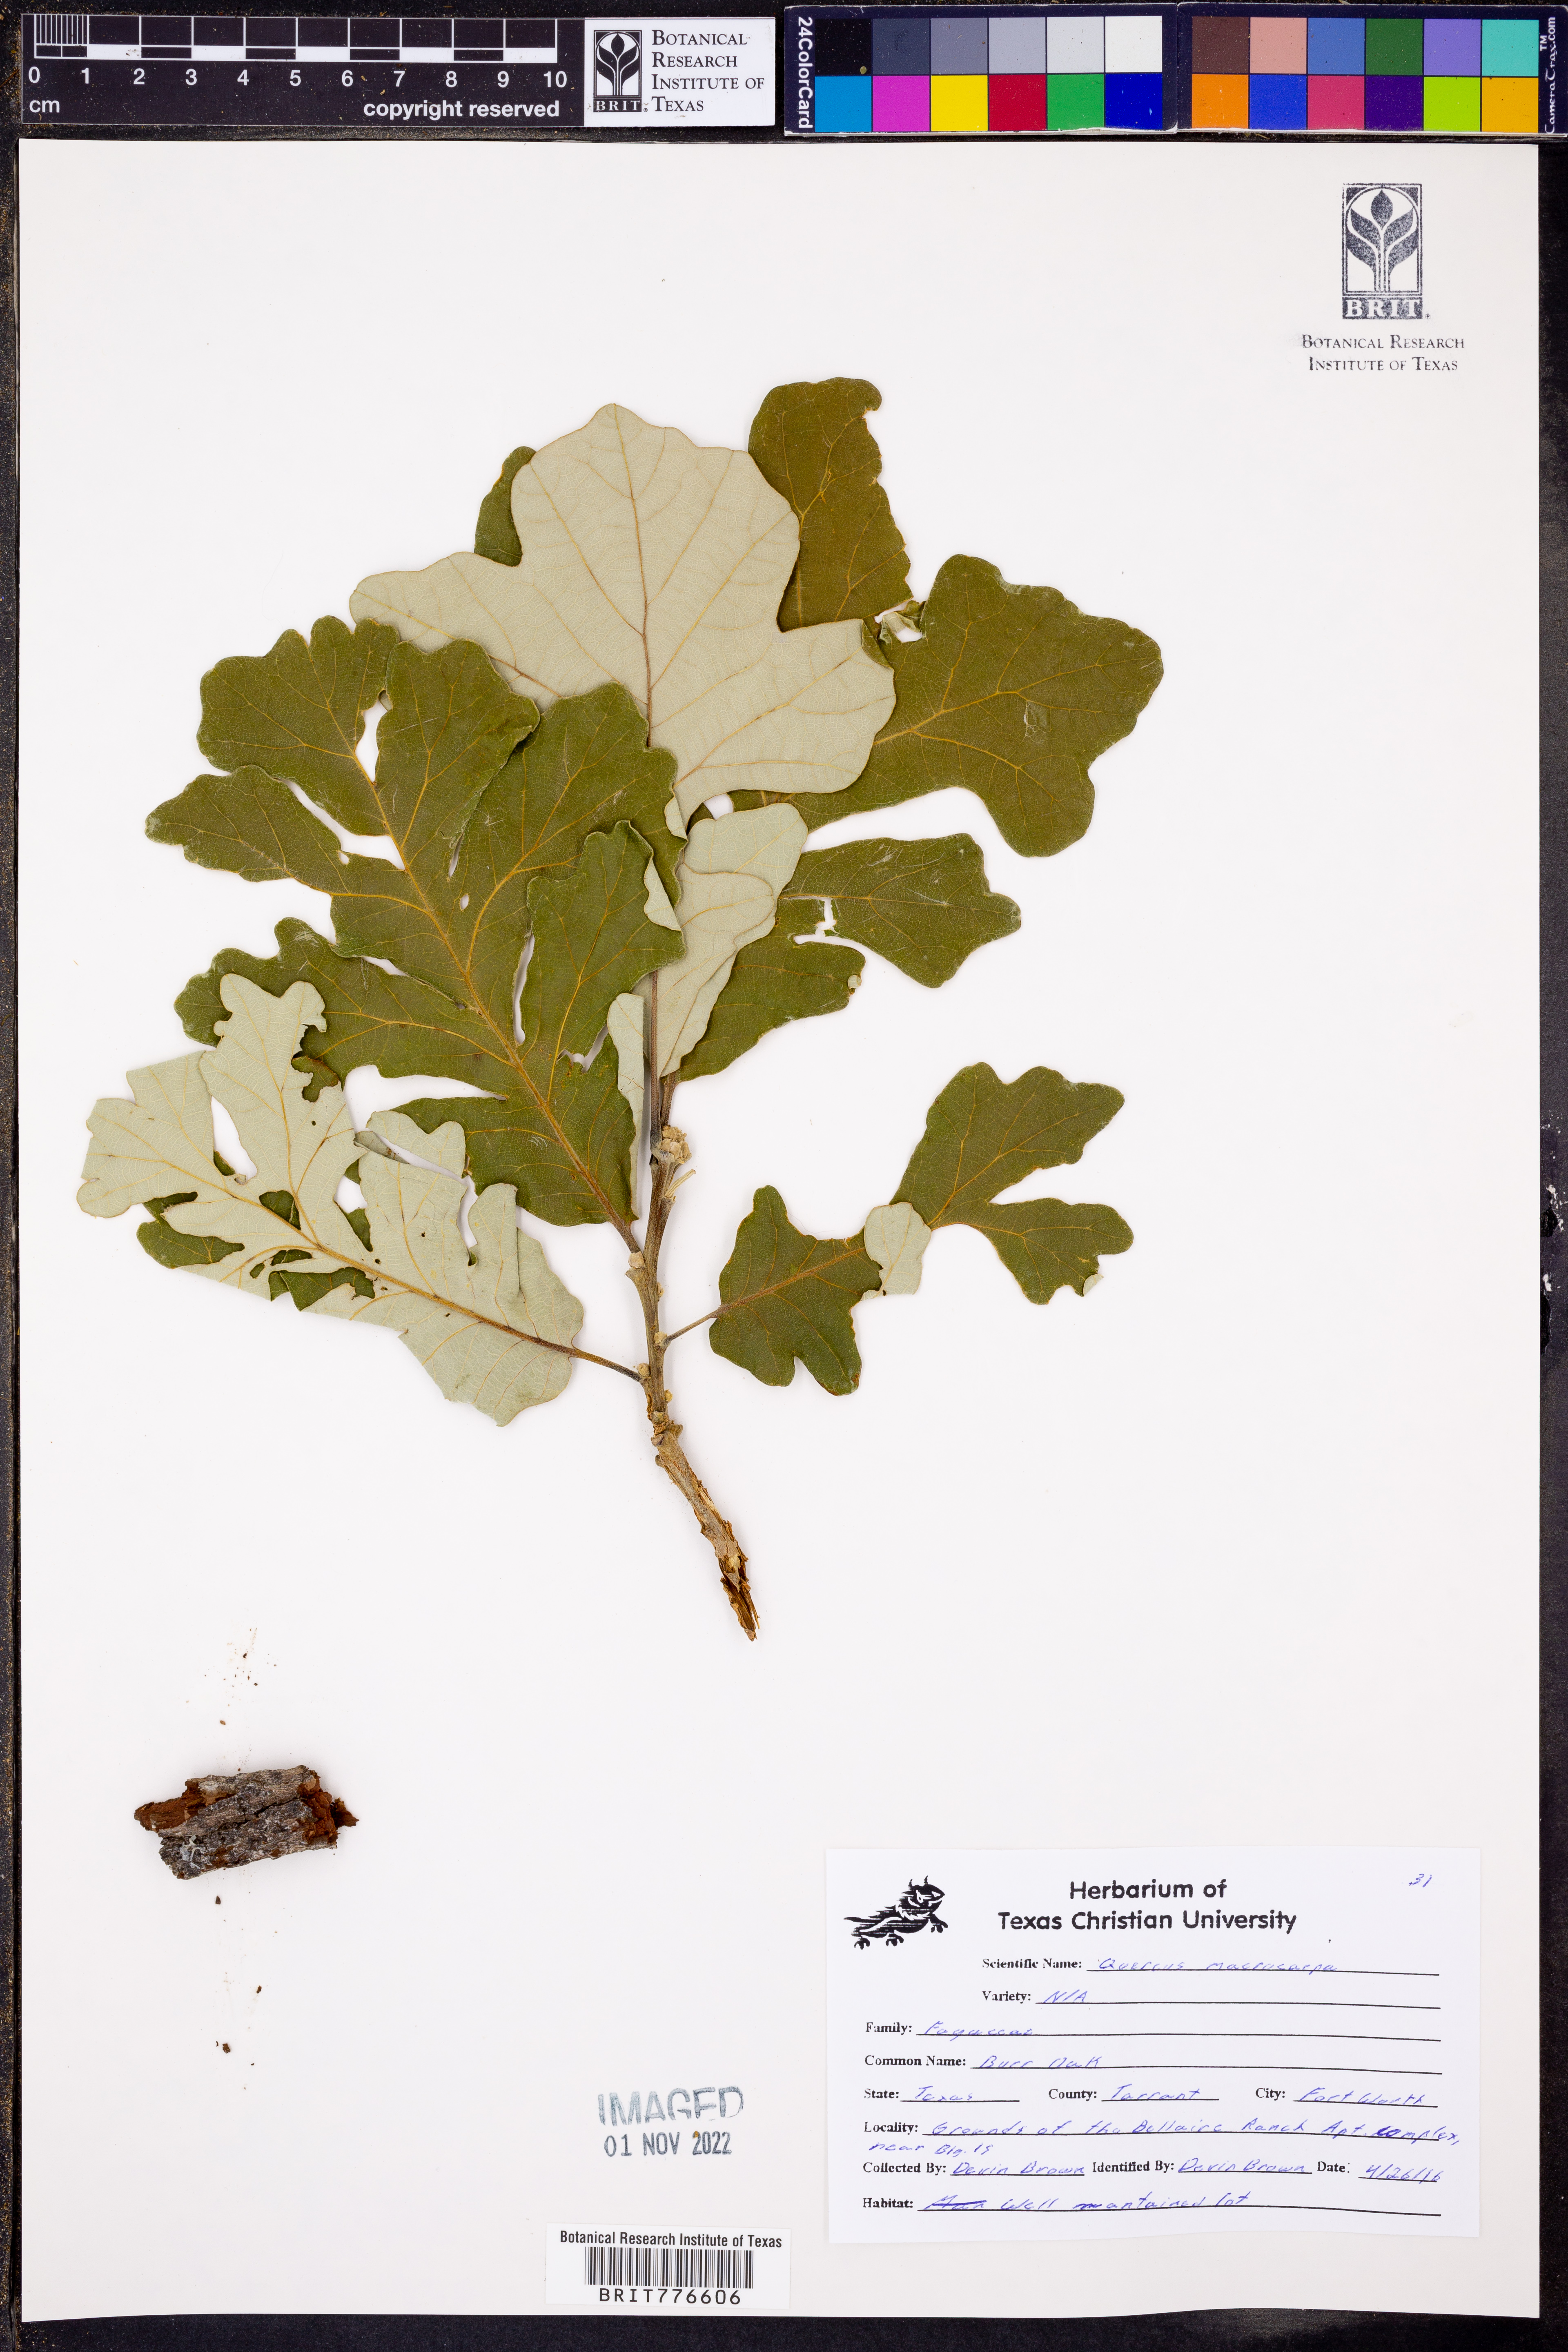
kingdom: Plantae
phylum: Tracheophyta
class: Magnoliopsida
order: Fagales
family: Fagaceae
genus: Quercus
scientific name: Quercus macrocarpa
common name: Bur oak
